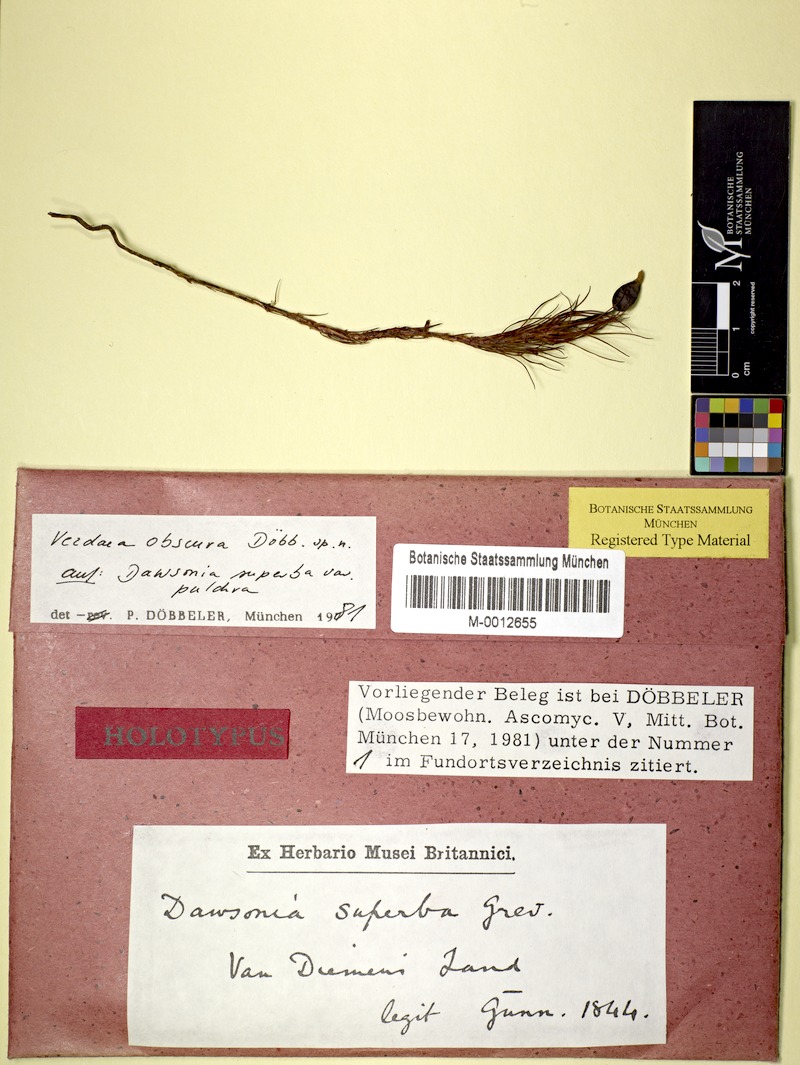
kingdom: Fungi
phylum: Ascomycota
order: Vezdaeales
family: Vezdaeaceae
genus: Vezdaea
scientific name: Vezdaea obscura
